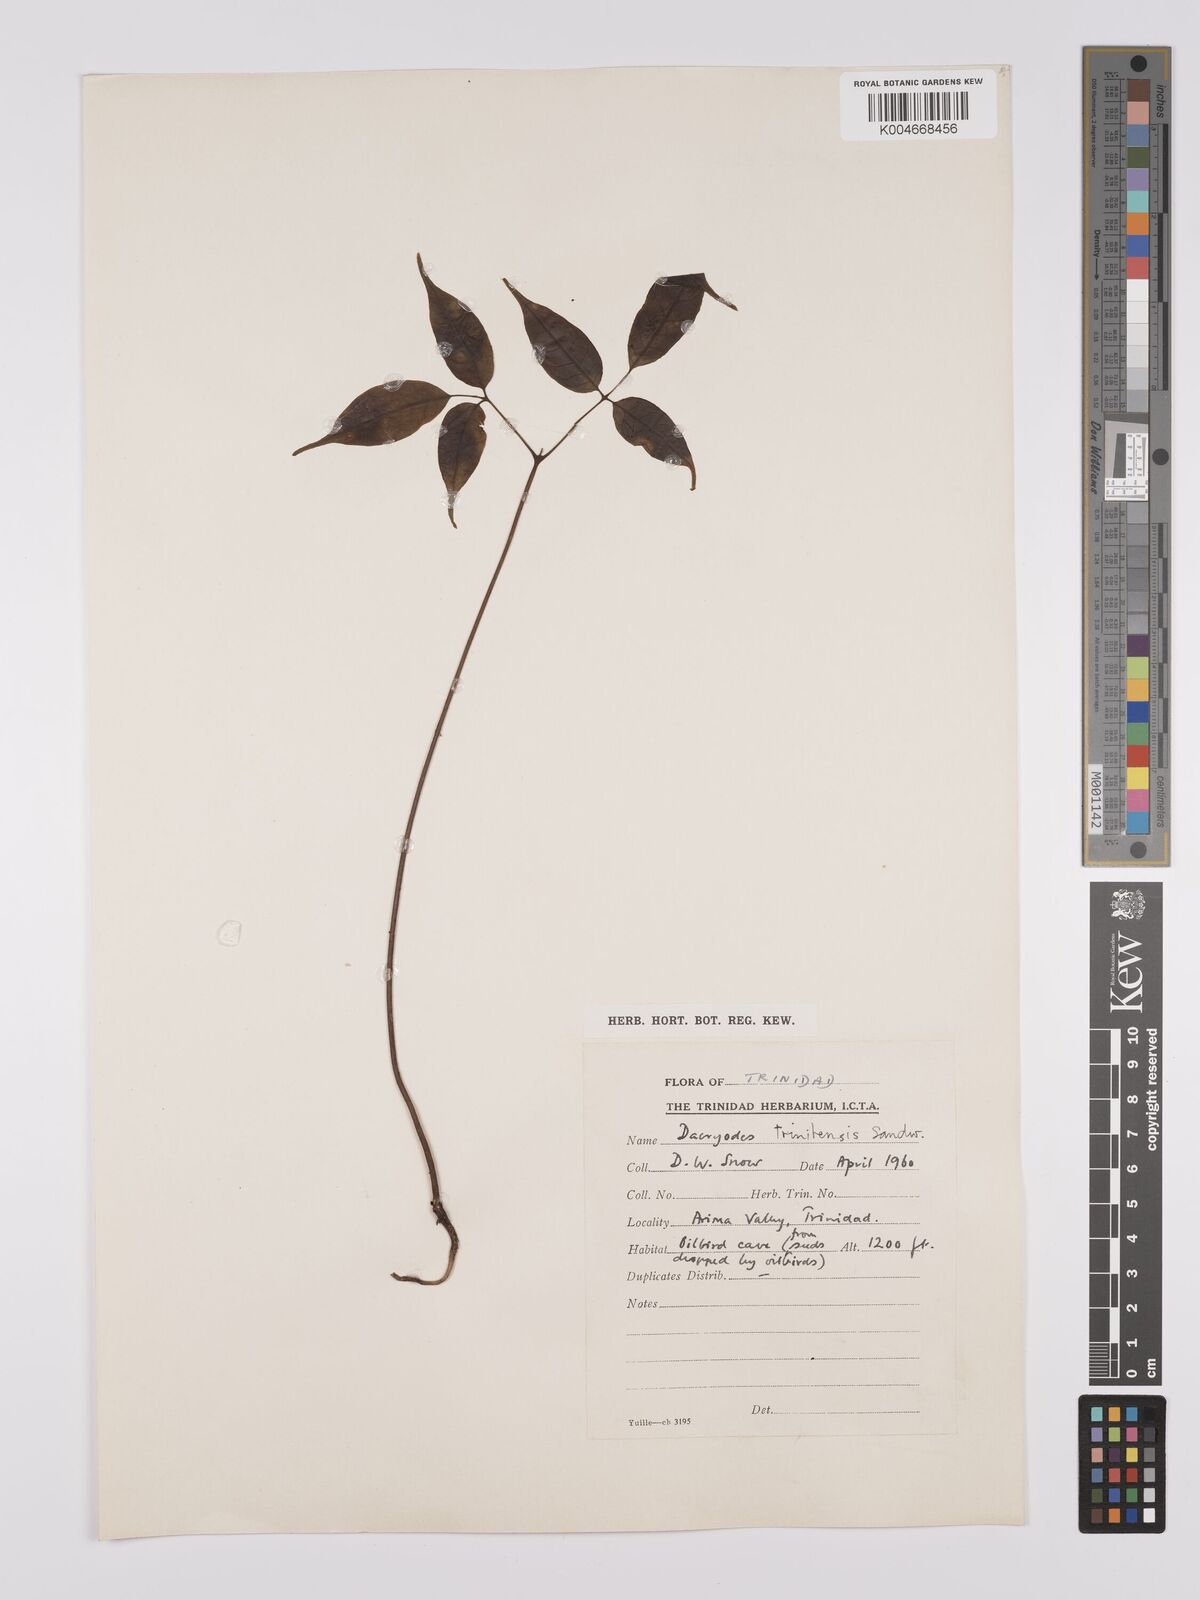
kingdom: Plantae
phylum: Tracheophyta
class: Magnoliopsida
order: Sapindales
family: Burseraceae
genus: Dacryodes
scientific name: Dacryodes belemensis
